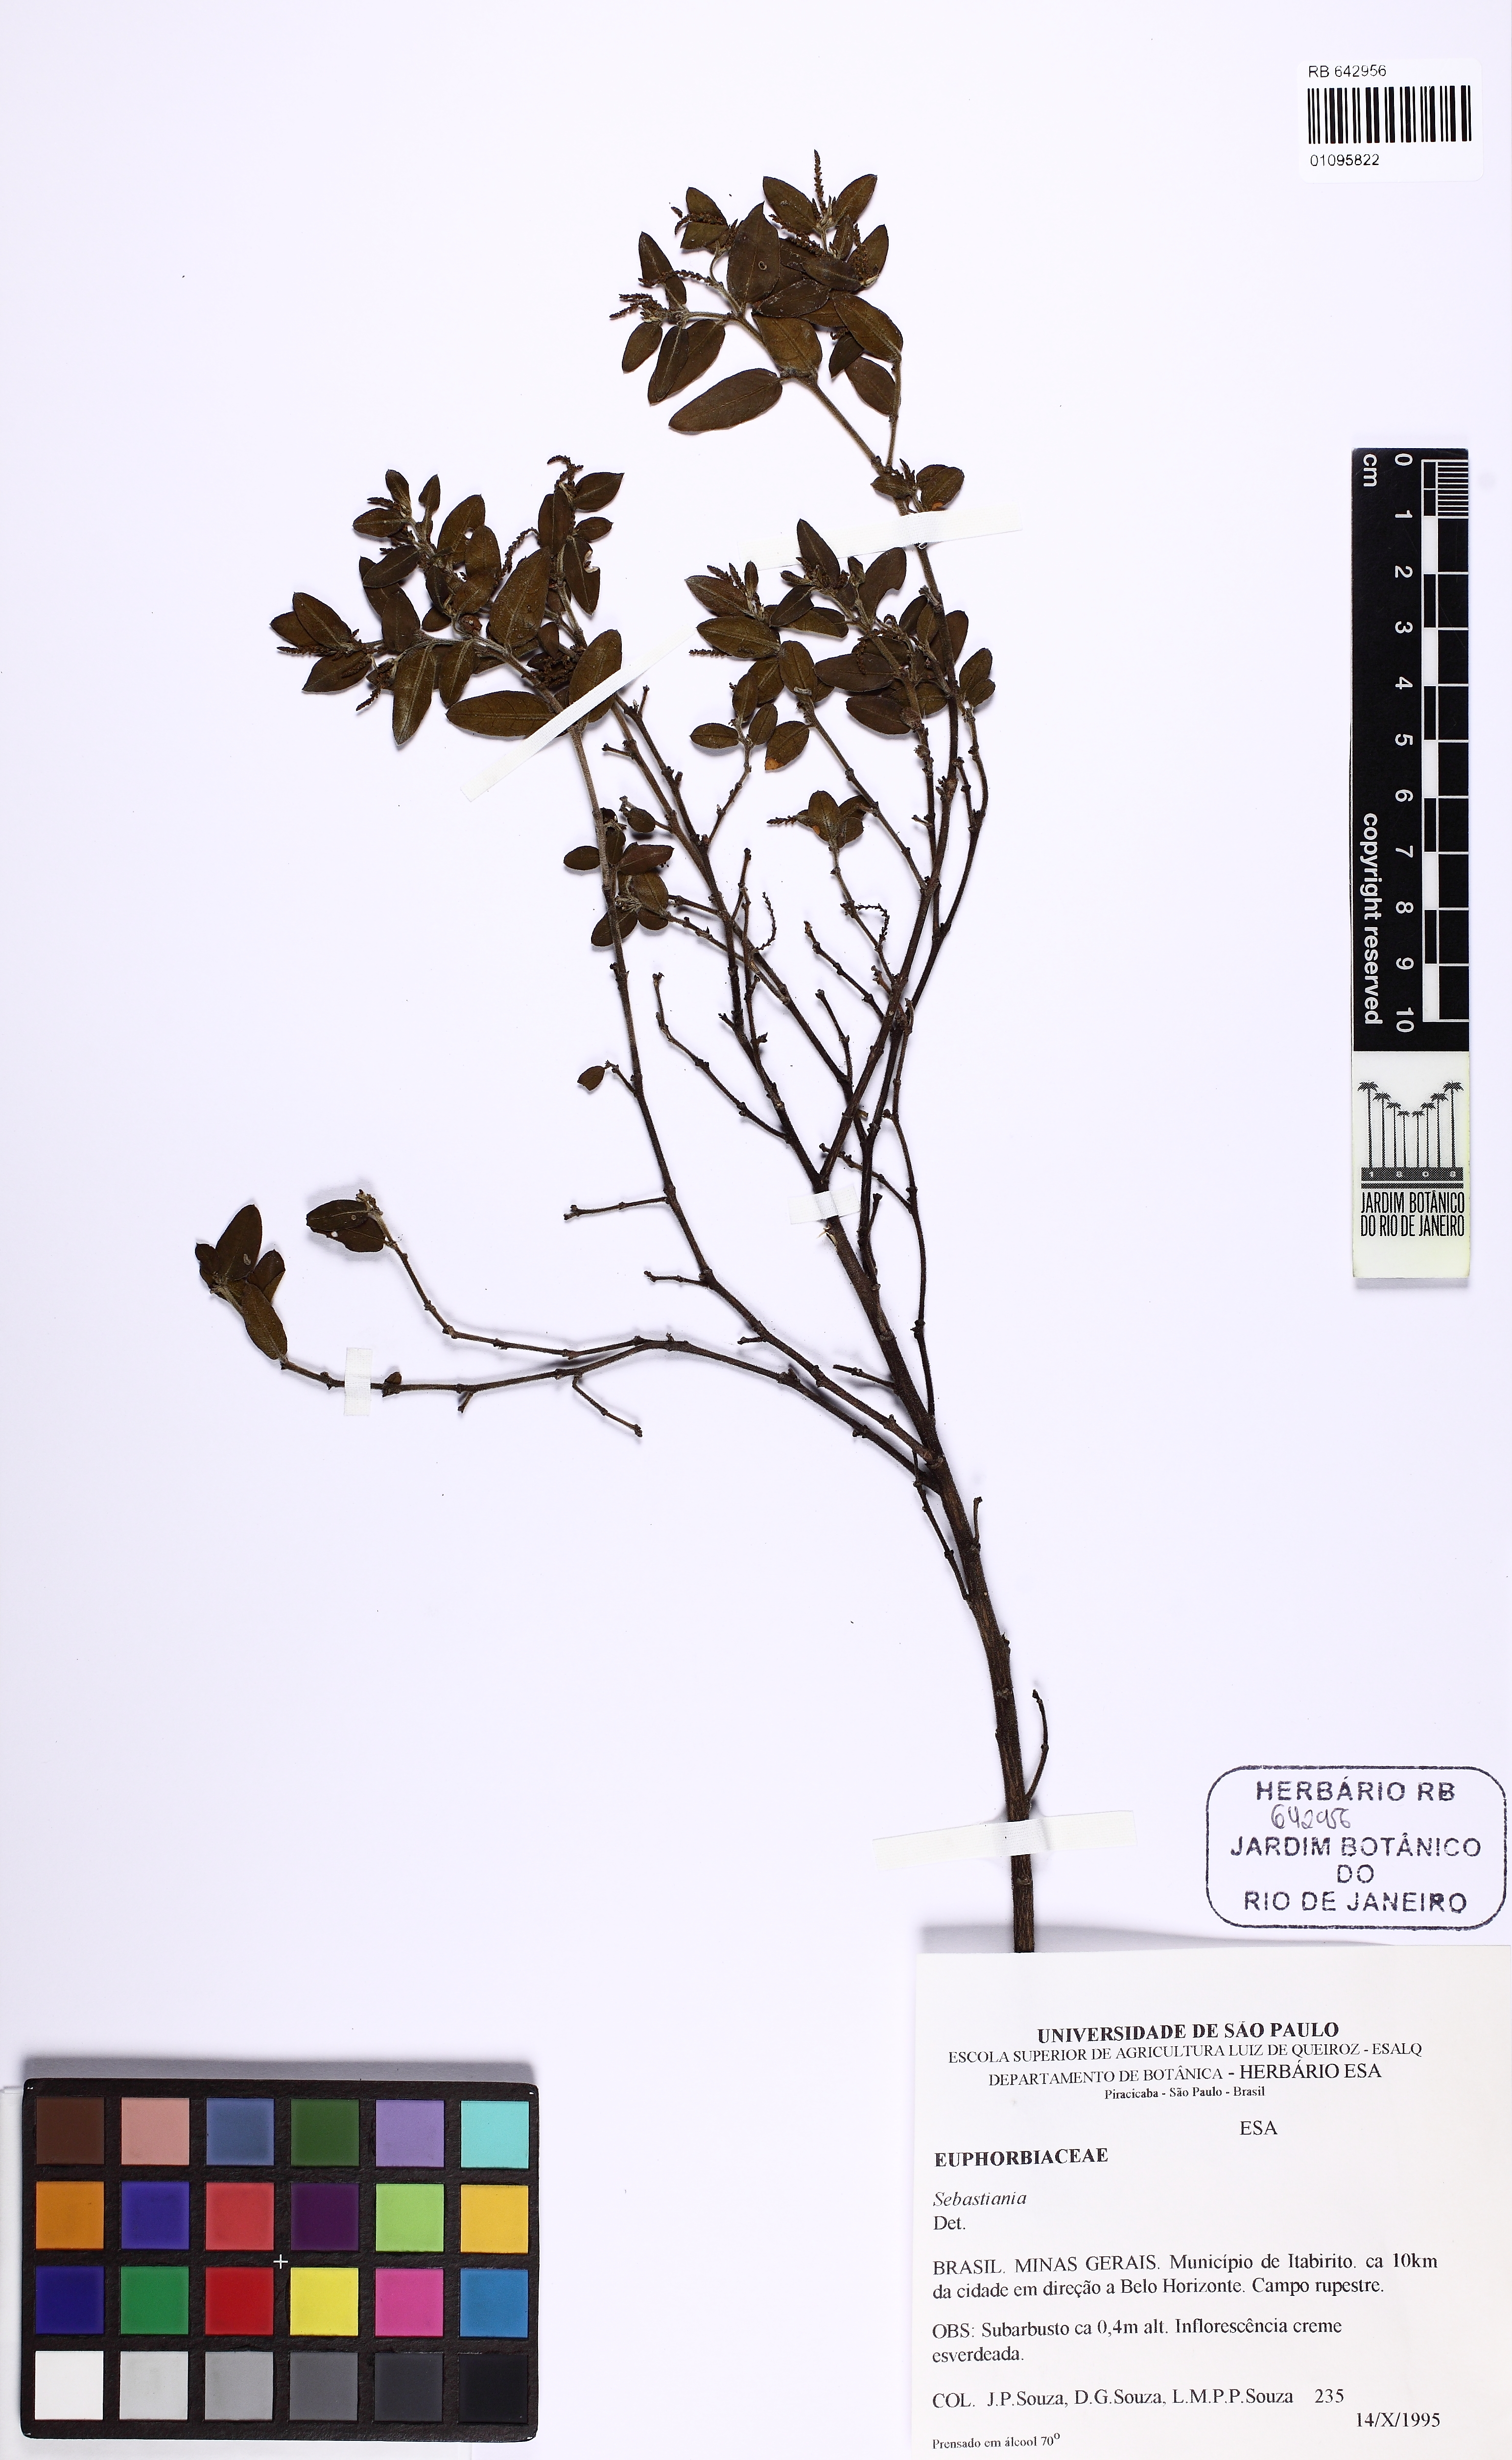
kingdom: Plantae
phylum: Tracheophyta
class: Magnoliopsida
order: Malpighiales
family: Euphorbiaceae
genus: Sebastiania
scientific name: Sebastiania
